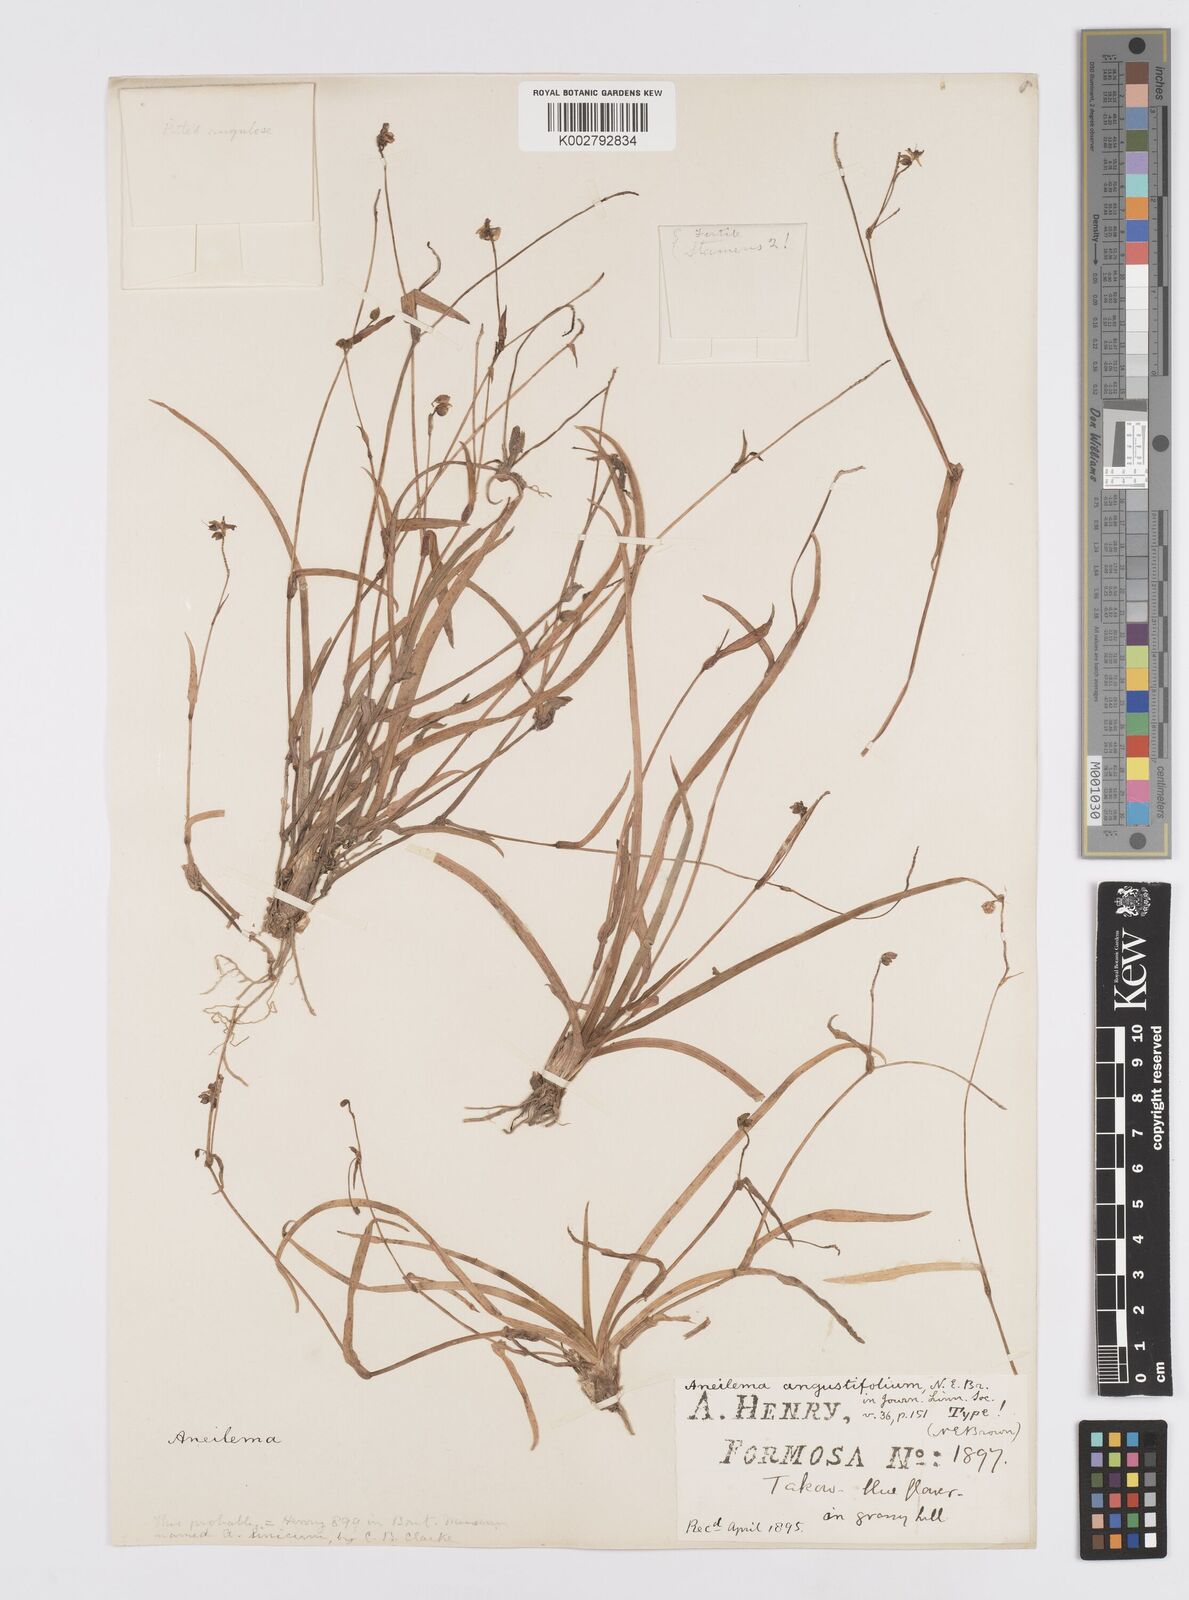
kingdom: Plantae
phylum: Tracheophyta
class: Liliopsida
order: Commelinales
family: Commelinaceae
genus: Murdannia
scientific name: Murdannia loriformis
